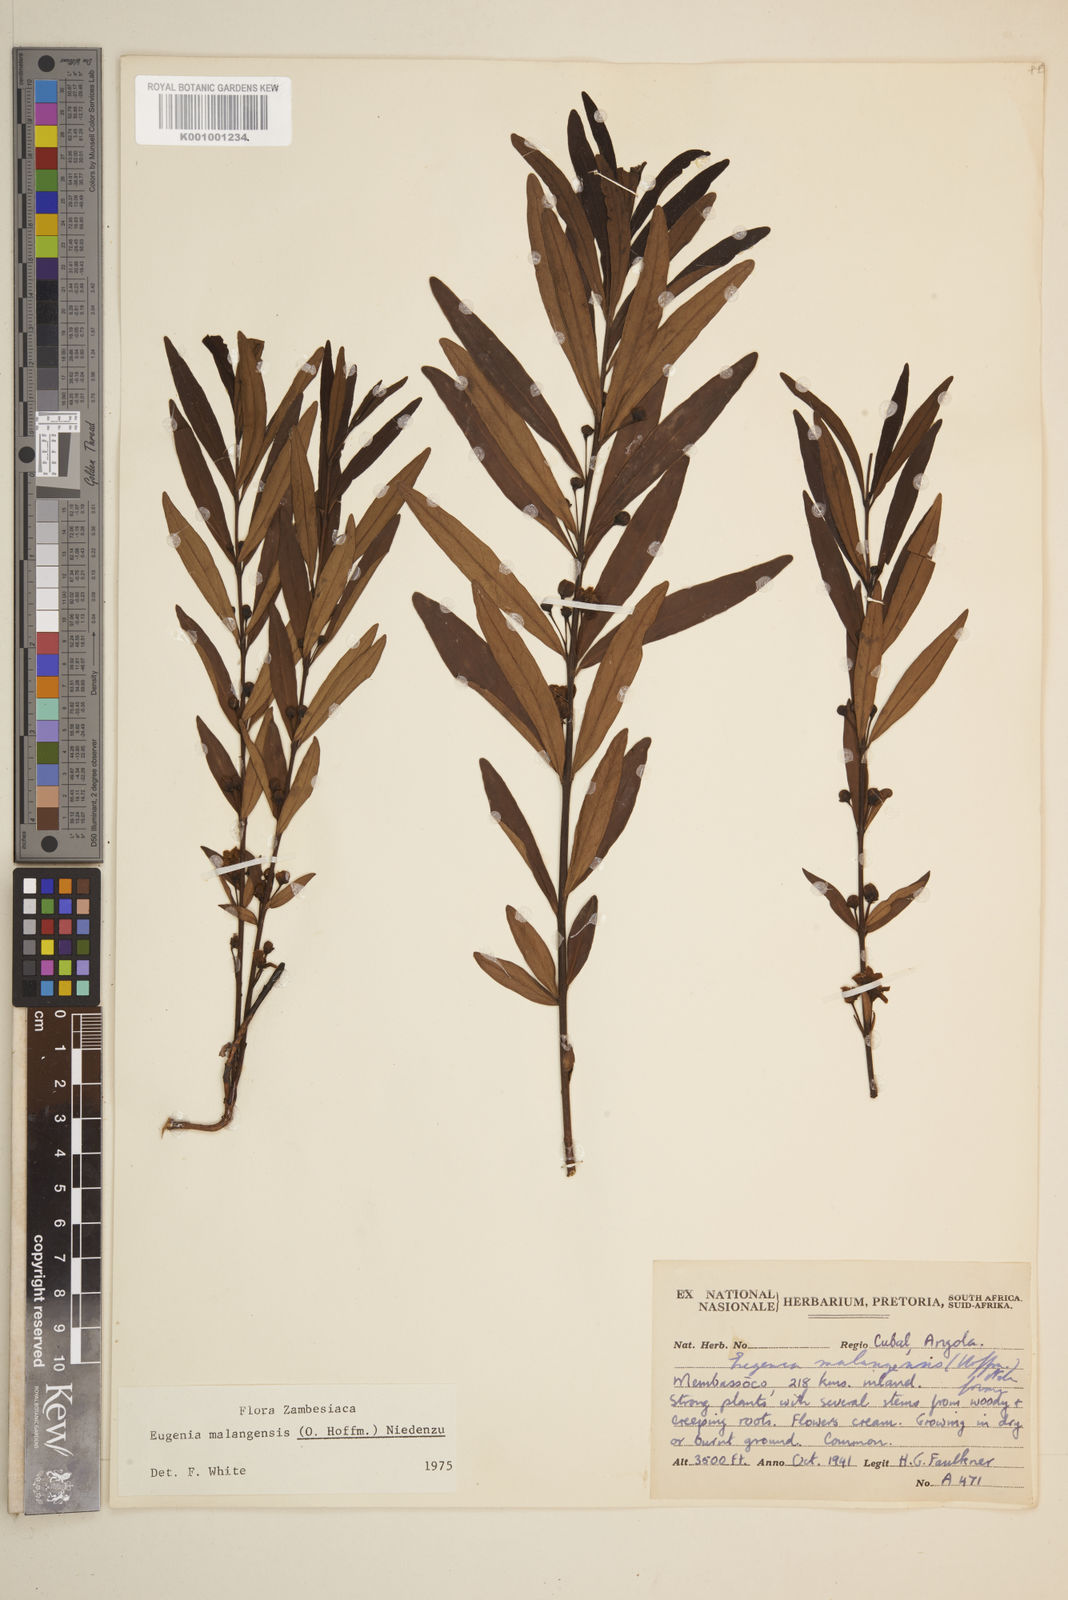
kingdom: Plantae
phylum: Tracheophyta
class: Magnoliopsida
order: Myrtales
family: Myrtaceae
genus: Eugenia
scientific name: Eugenia malangensis
